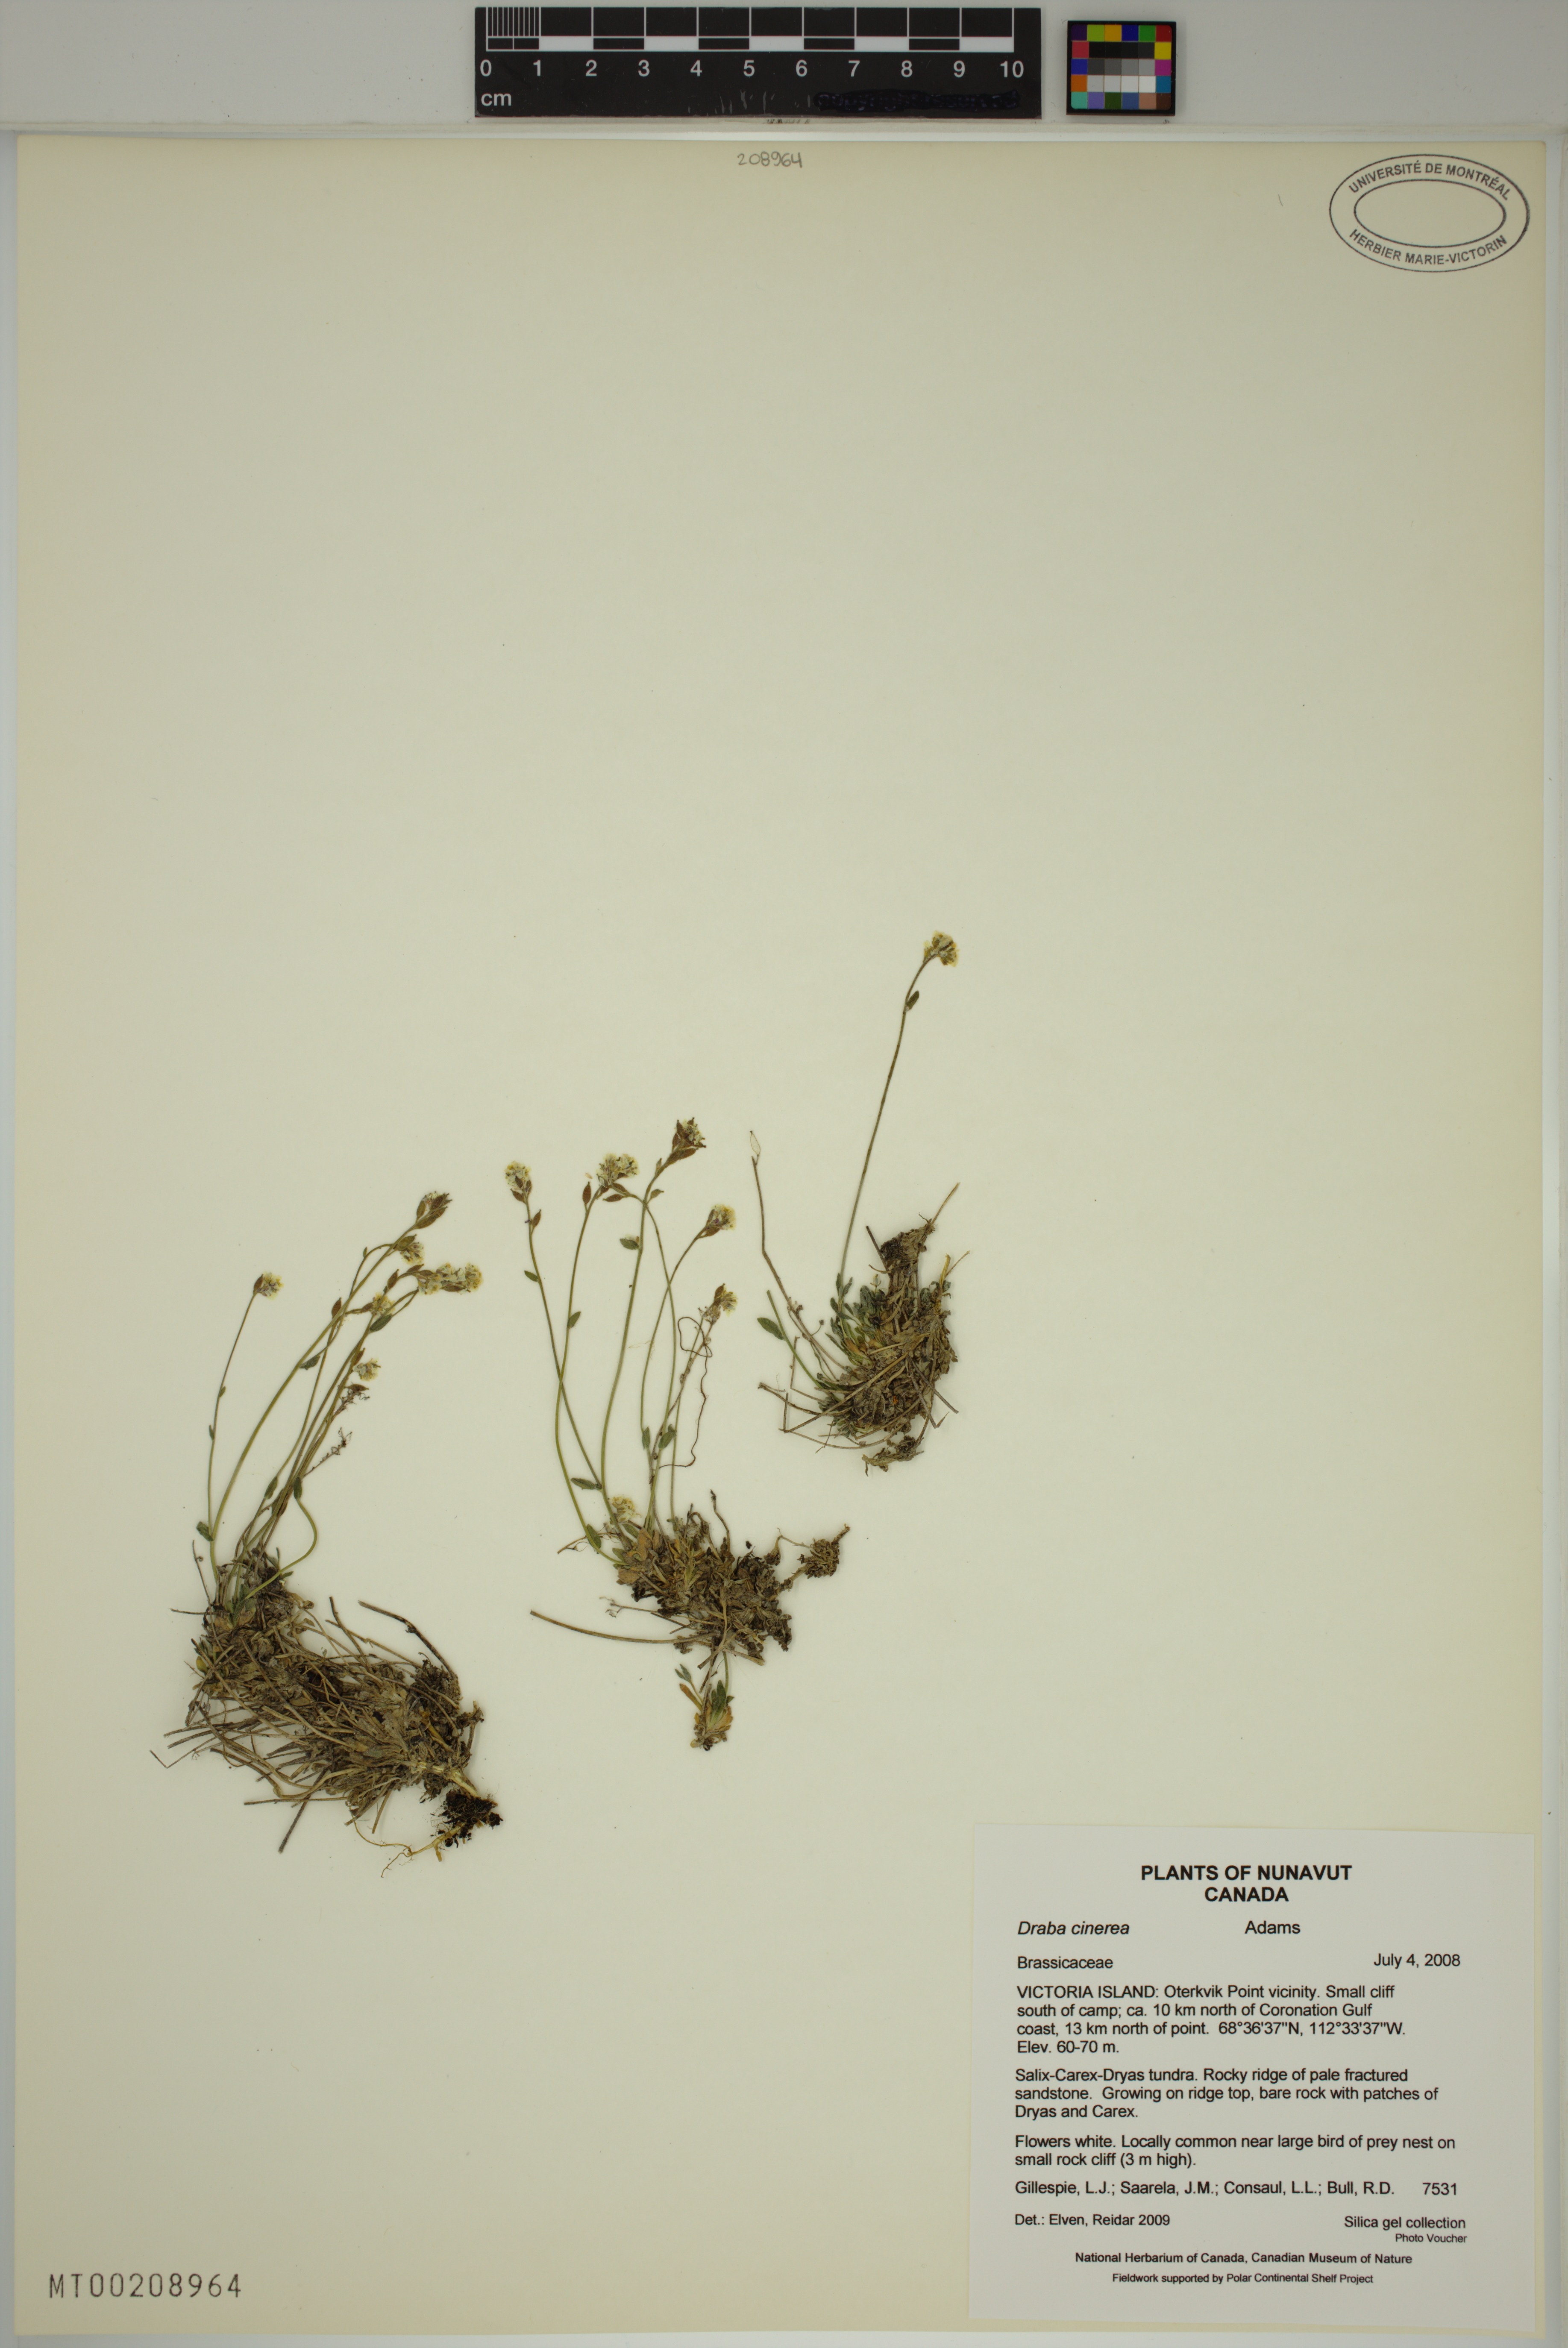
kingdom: Plantae
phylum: Tracheophyta
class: Magnoliopsida
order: Brassicales
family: Brassicaceae
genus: Draba
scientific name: Draba cinerea
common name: Ash-coloured whitlow-grass
